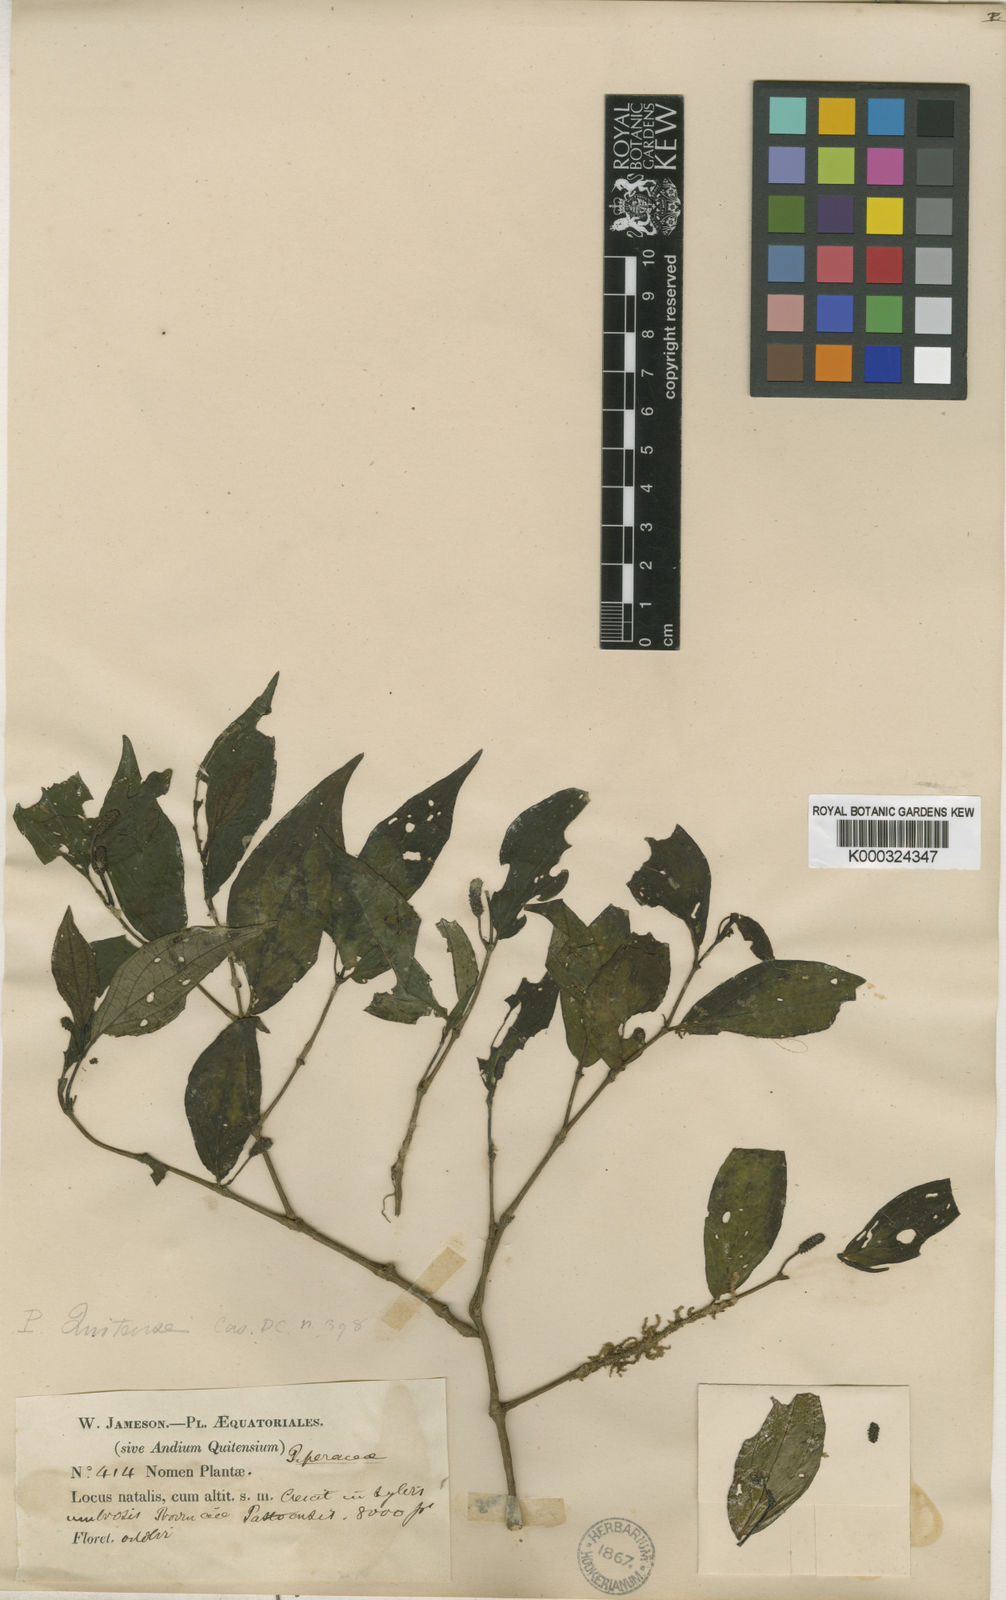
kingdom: Plantae
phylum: Tracheophyta
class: Magnoliopsida
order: Piperales
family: Piperaceae
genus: Piper
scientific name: Piper quitense
